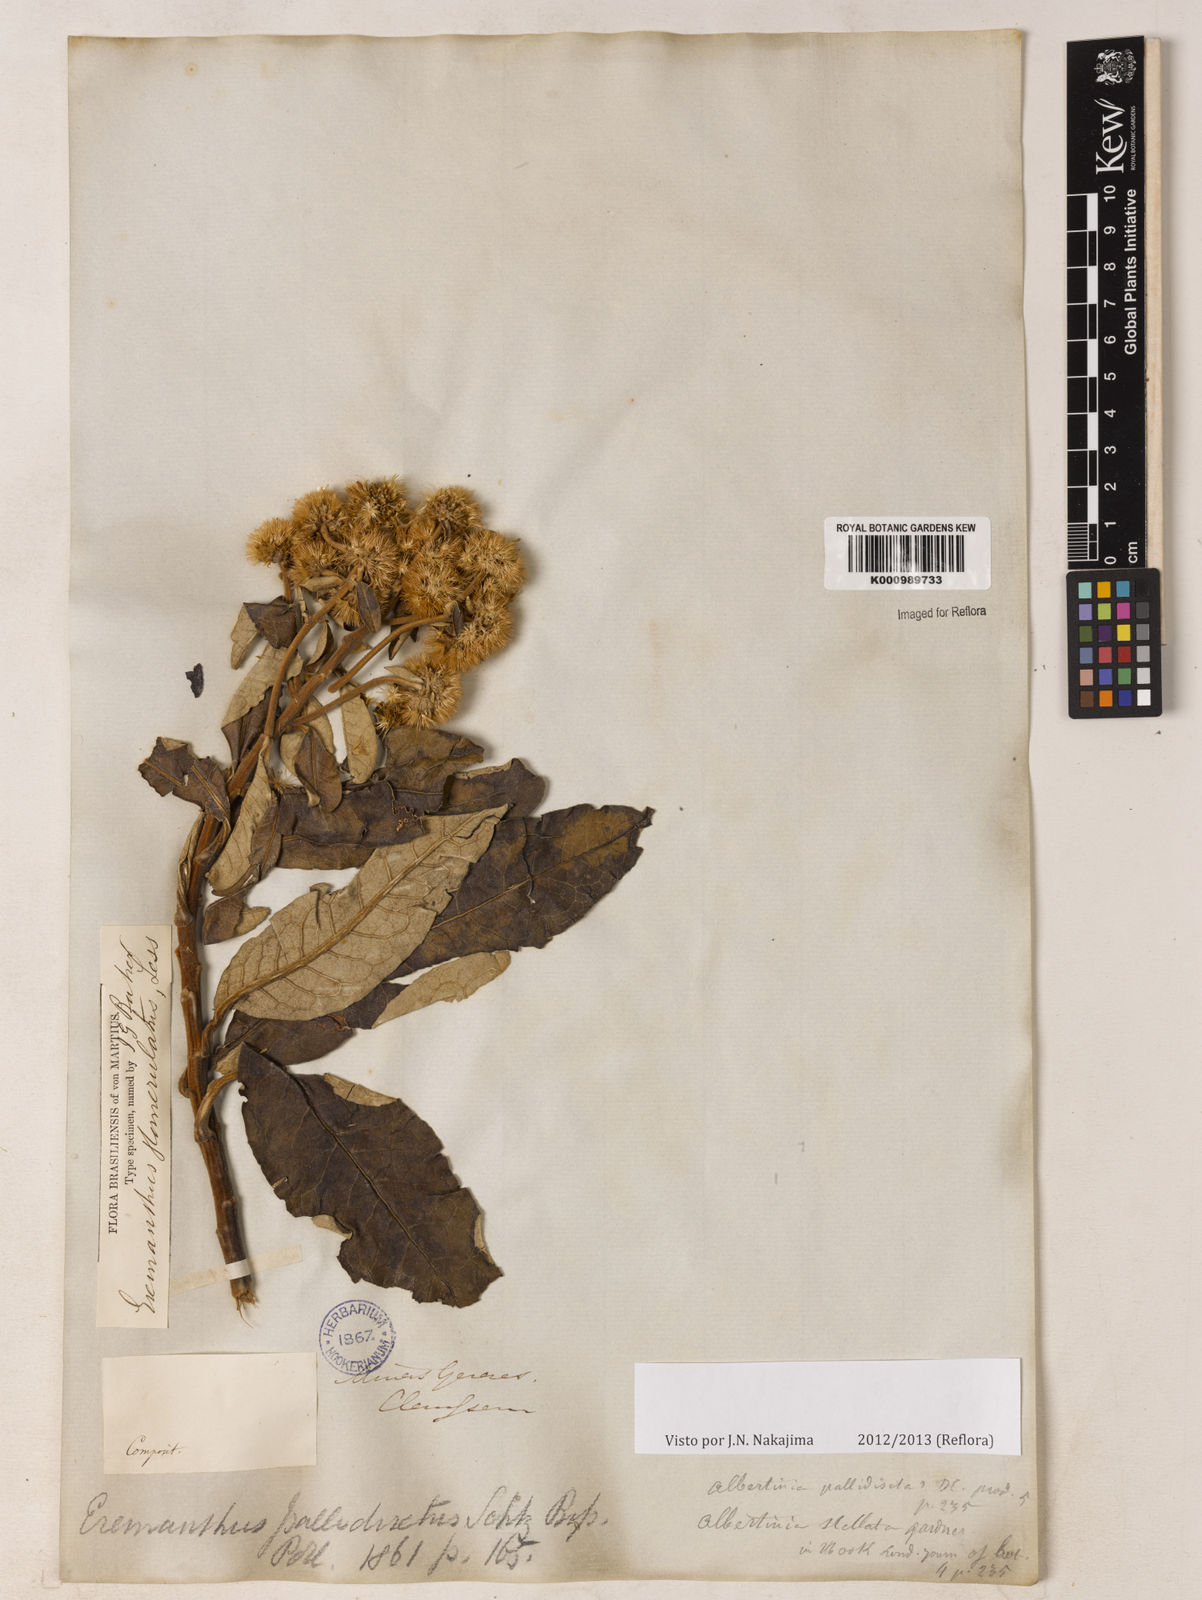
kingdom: Plantae
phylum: Tracheophyta
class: Magnoliopsida
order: Asterales
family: Asteraceae
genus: Eremanthus
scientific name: Eremanthus glomerulatus
